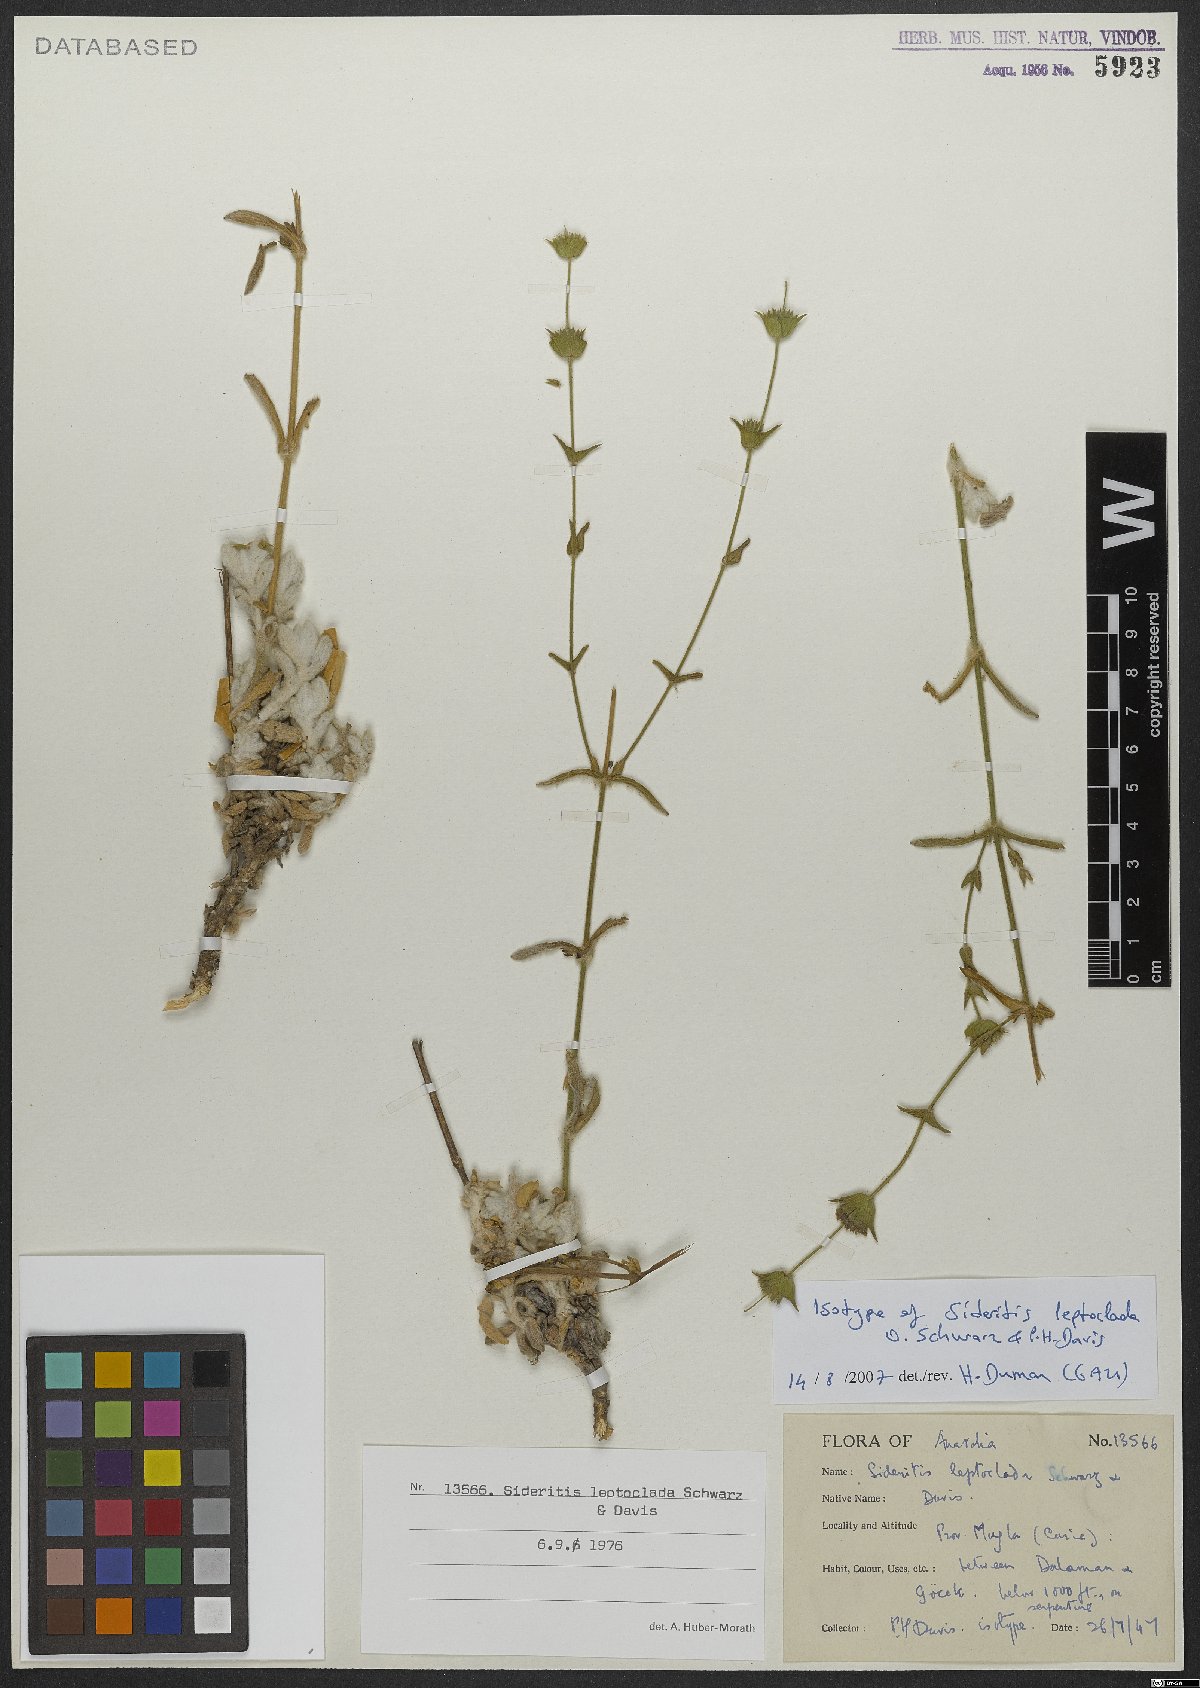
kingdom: Plantae
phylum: Tracheophyta
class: Magnoliopsida
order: Lamiales
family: Lamiaceae
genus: Sideritis
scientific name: Sideritis leptoclada
